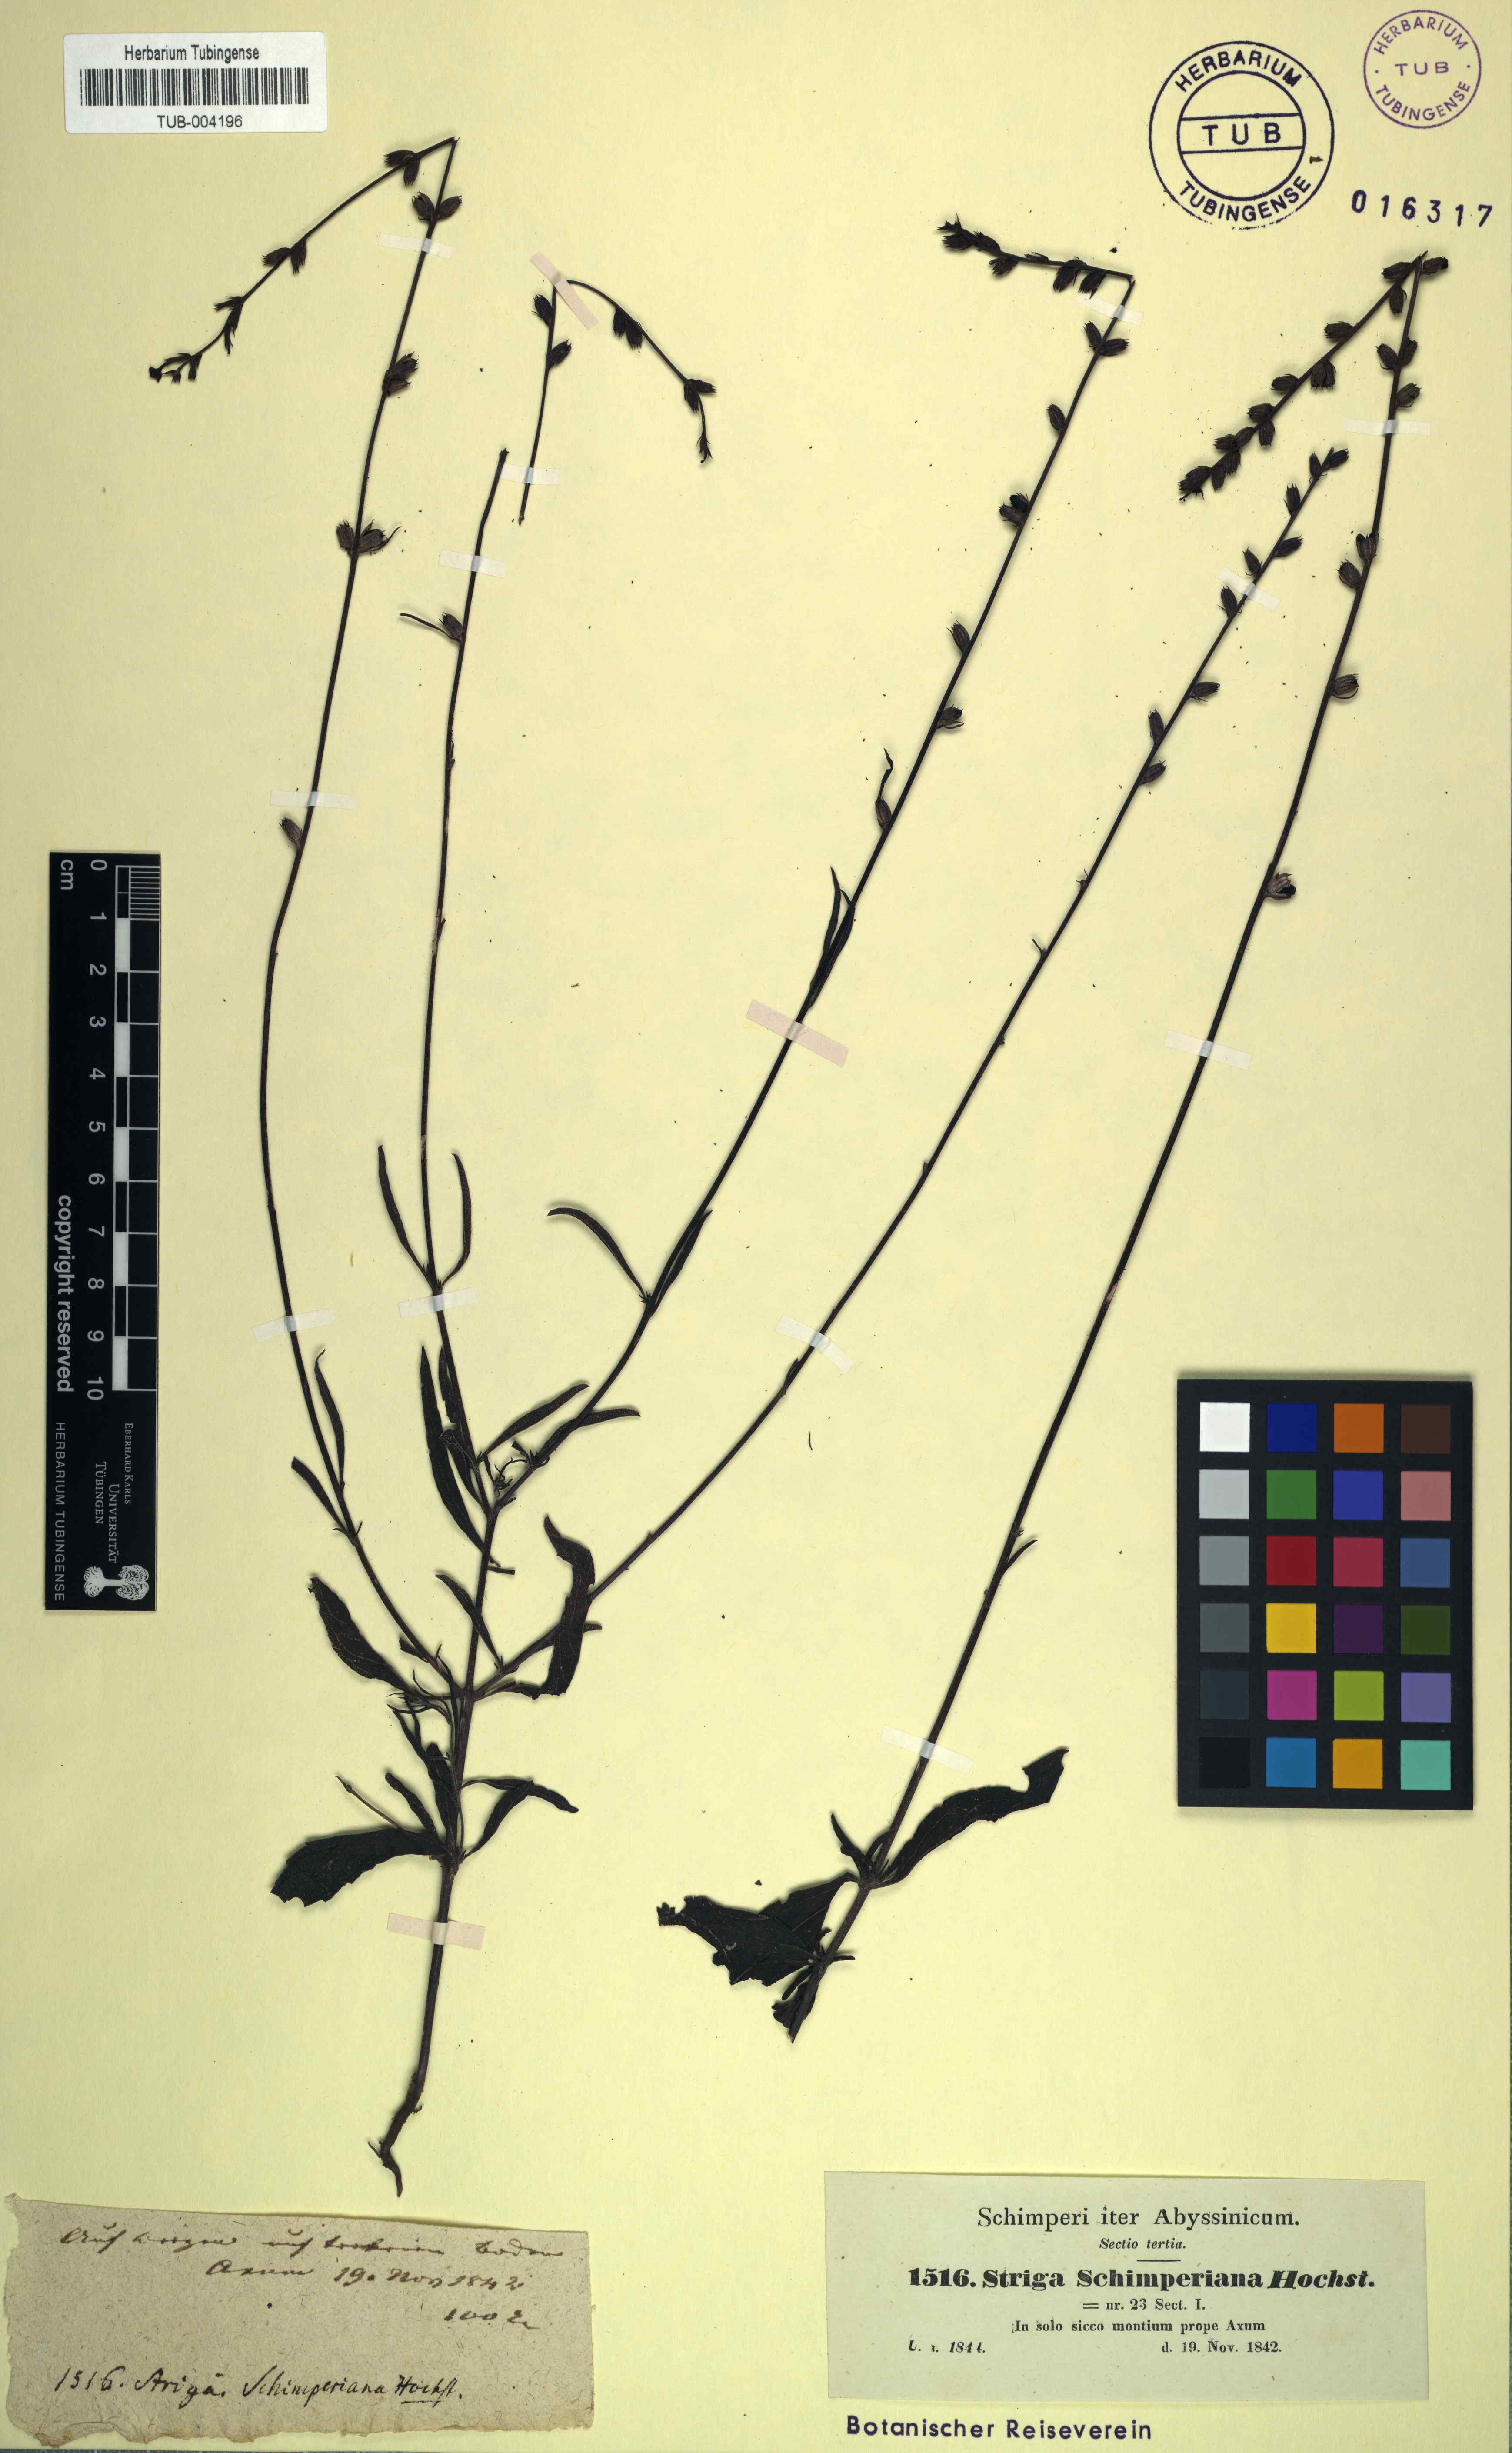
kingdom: Plantae
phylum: Tracheophyta
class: Magnoliopsida
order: Lamiales
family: Orobanchaceae
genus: Buchnera
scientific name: Buchnera hispida
